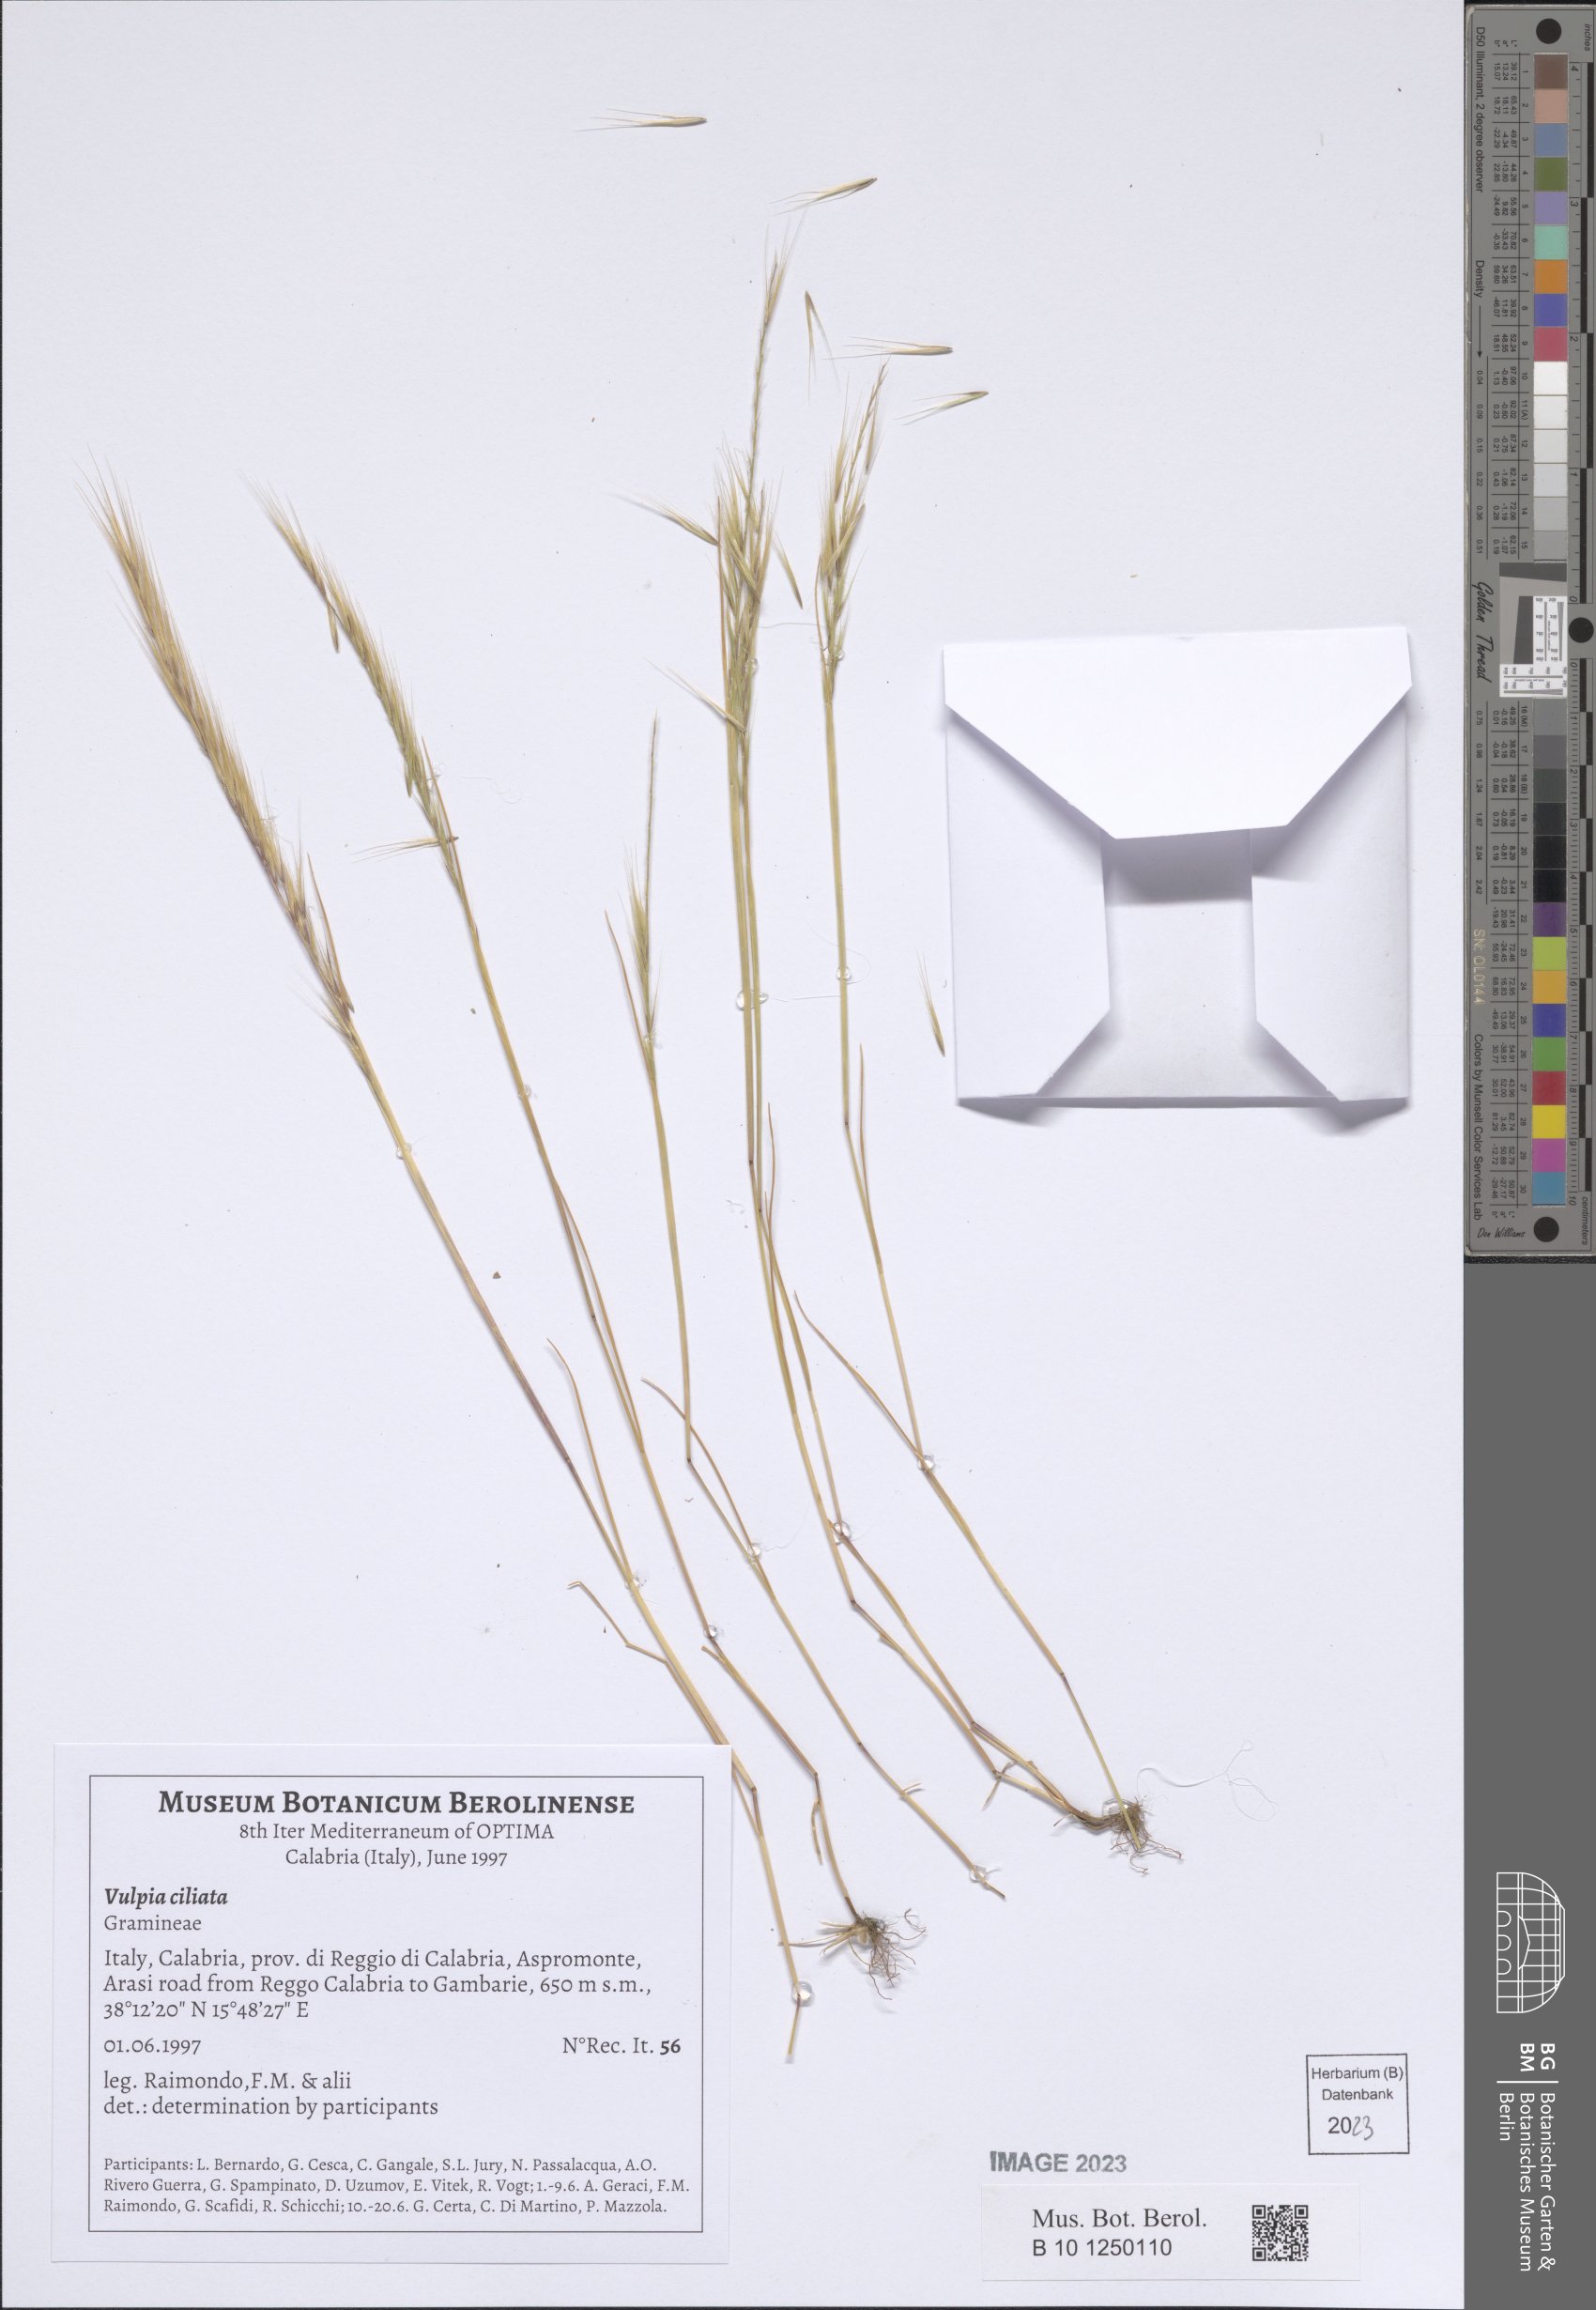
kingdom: Plantae
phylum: Tracheophyta
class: Liliopsida
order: Poales
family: Poaceae
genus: Festuca
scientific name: Festuca ambigua
